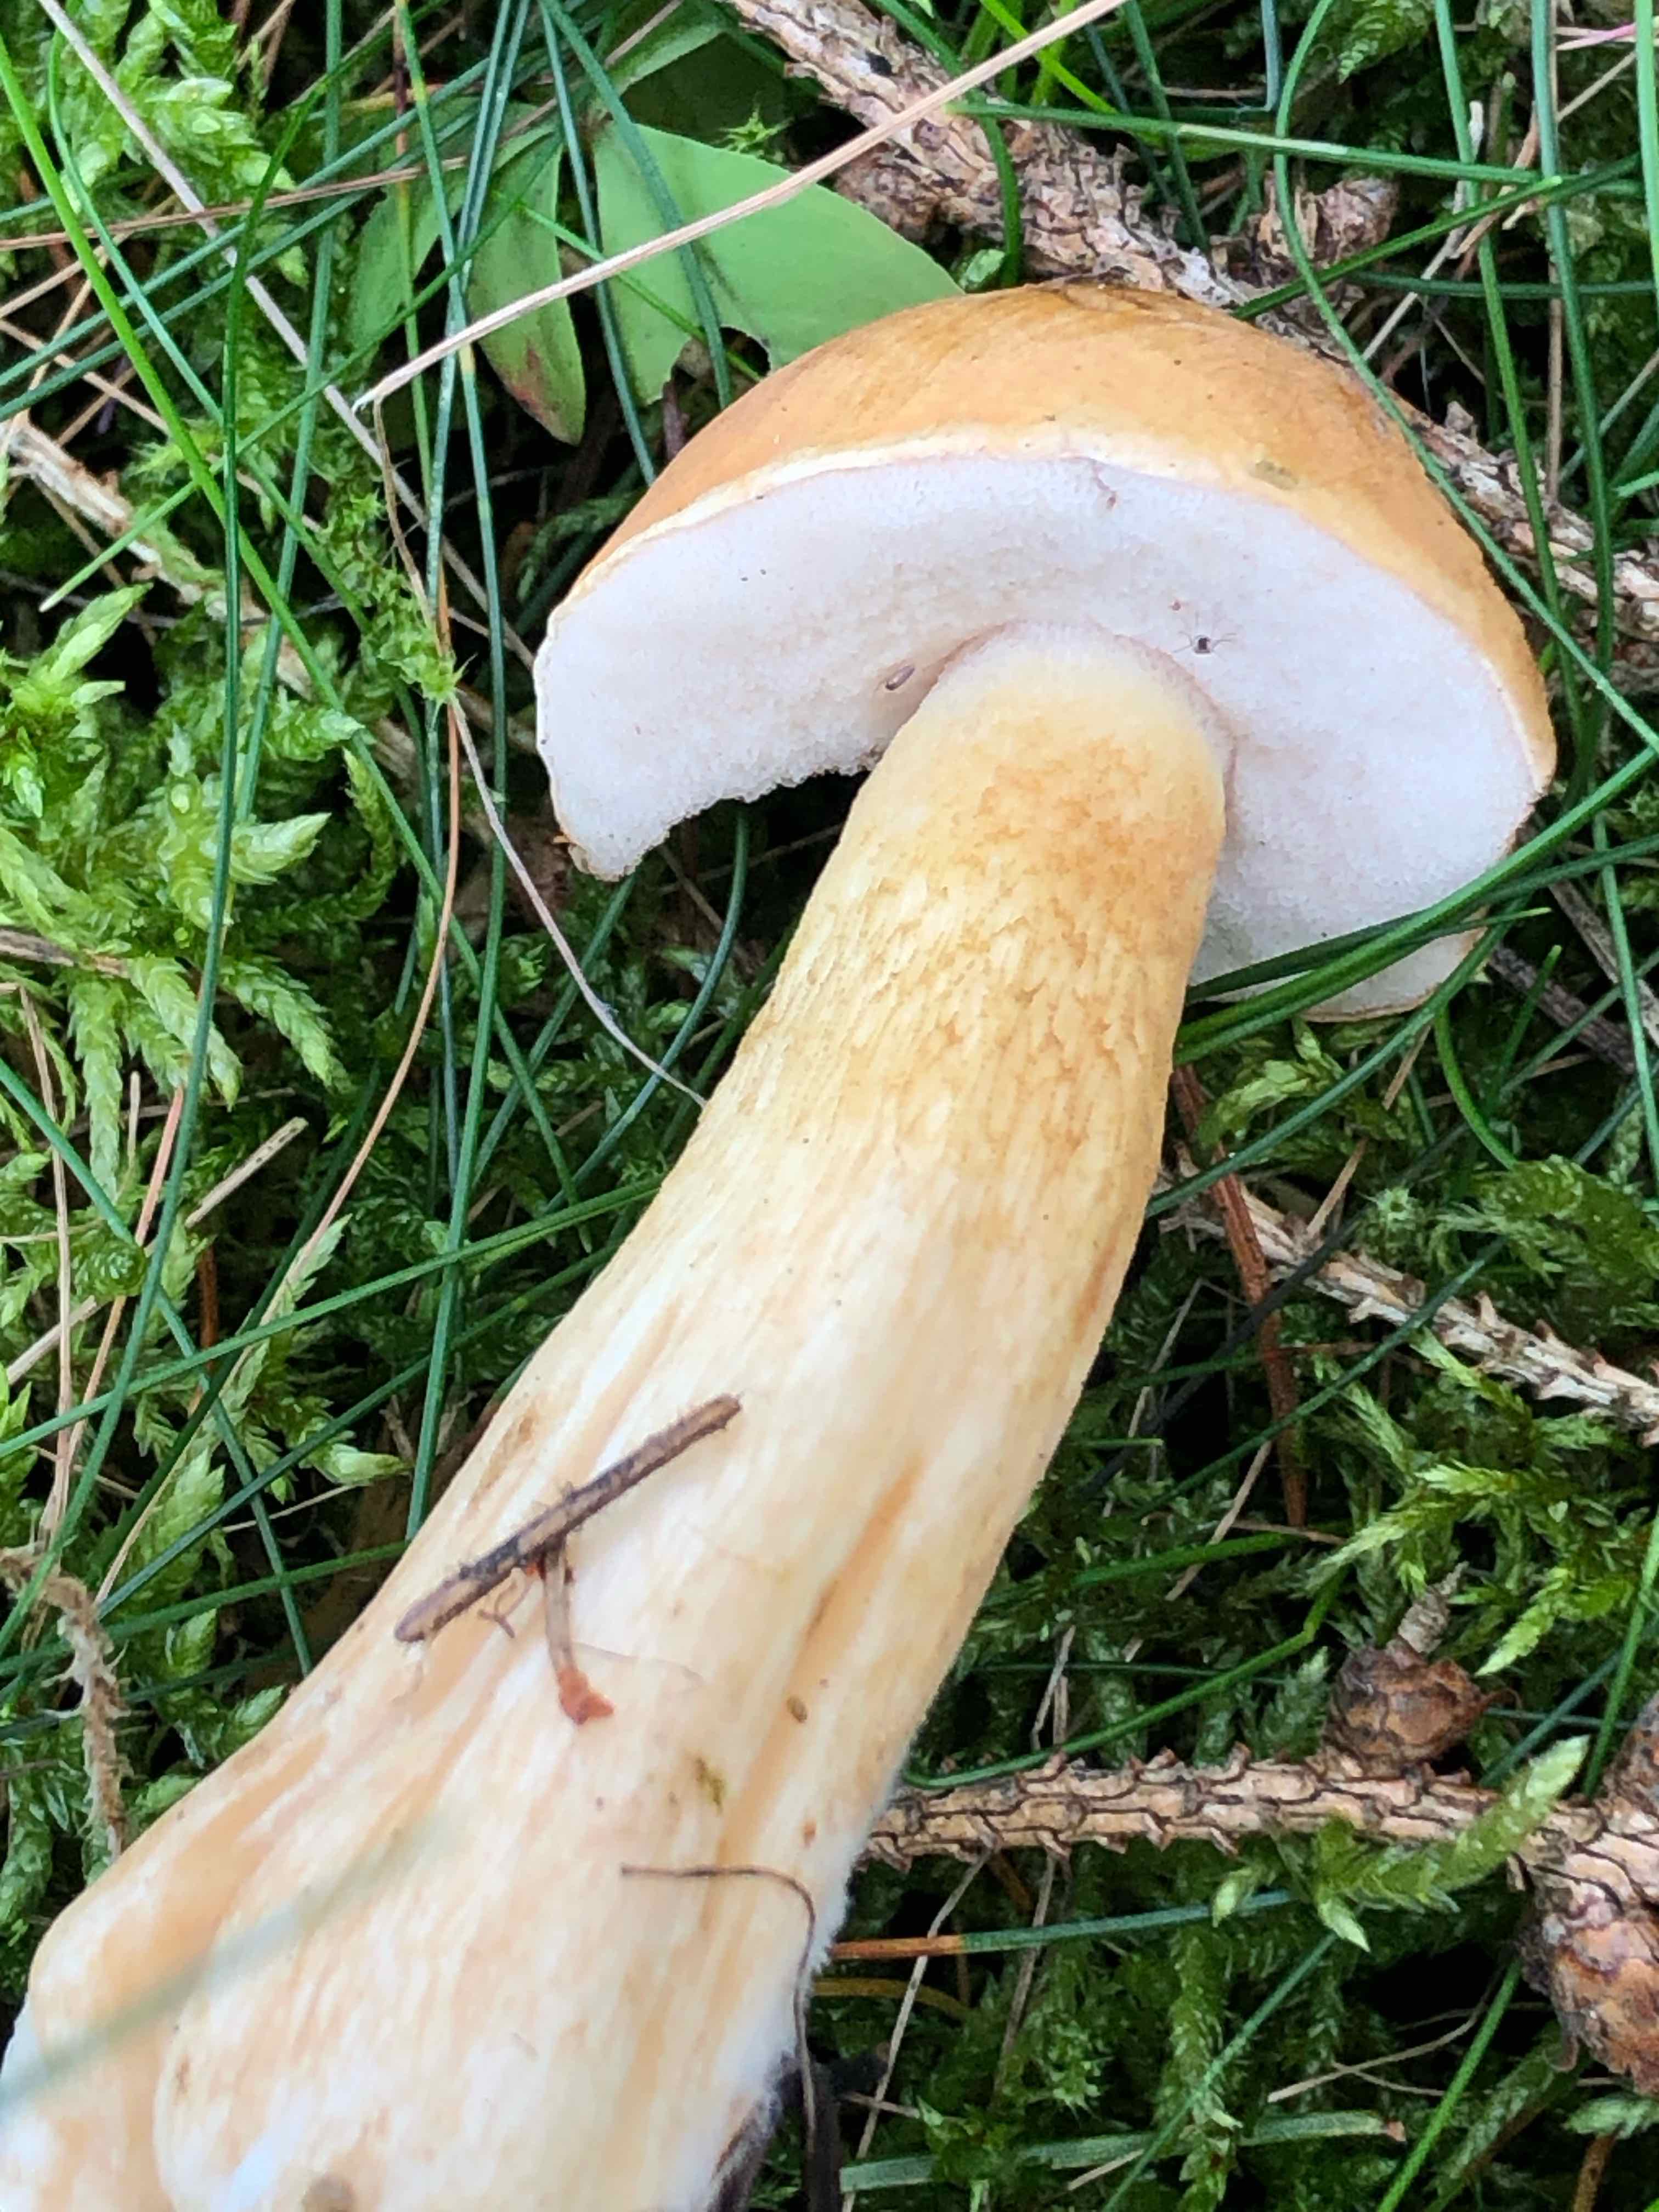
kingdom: Fungi
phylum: Basidiomycota
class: Agaricomycetes
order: Boletales
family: Boletaceae
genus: Tylopilus
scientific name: Tylopilus felleus
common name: galderørhat
